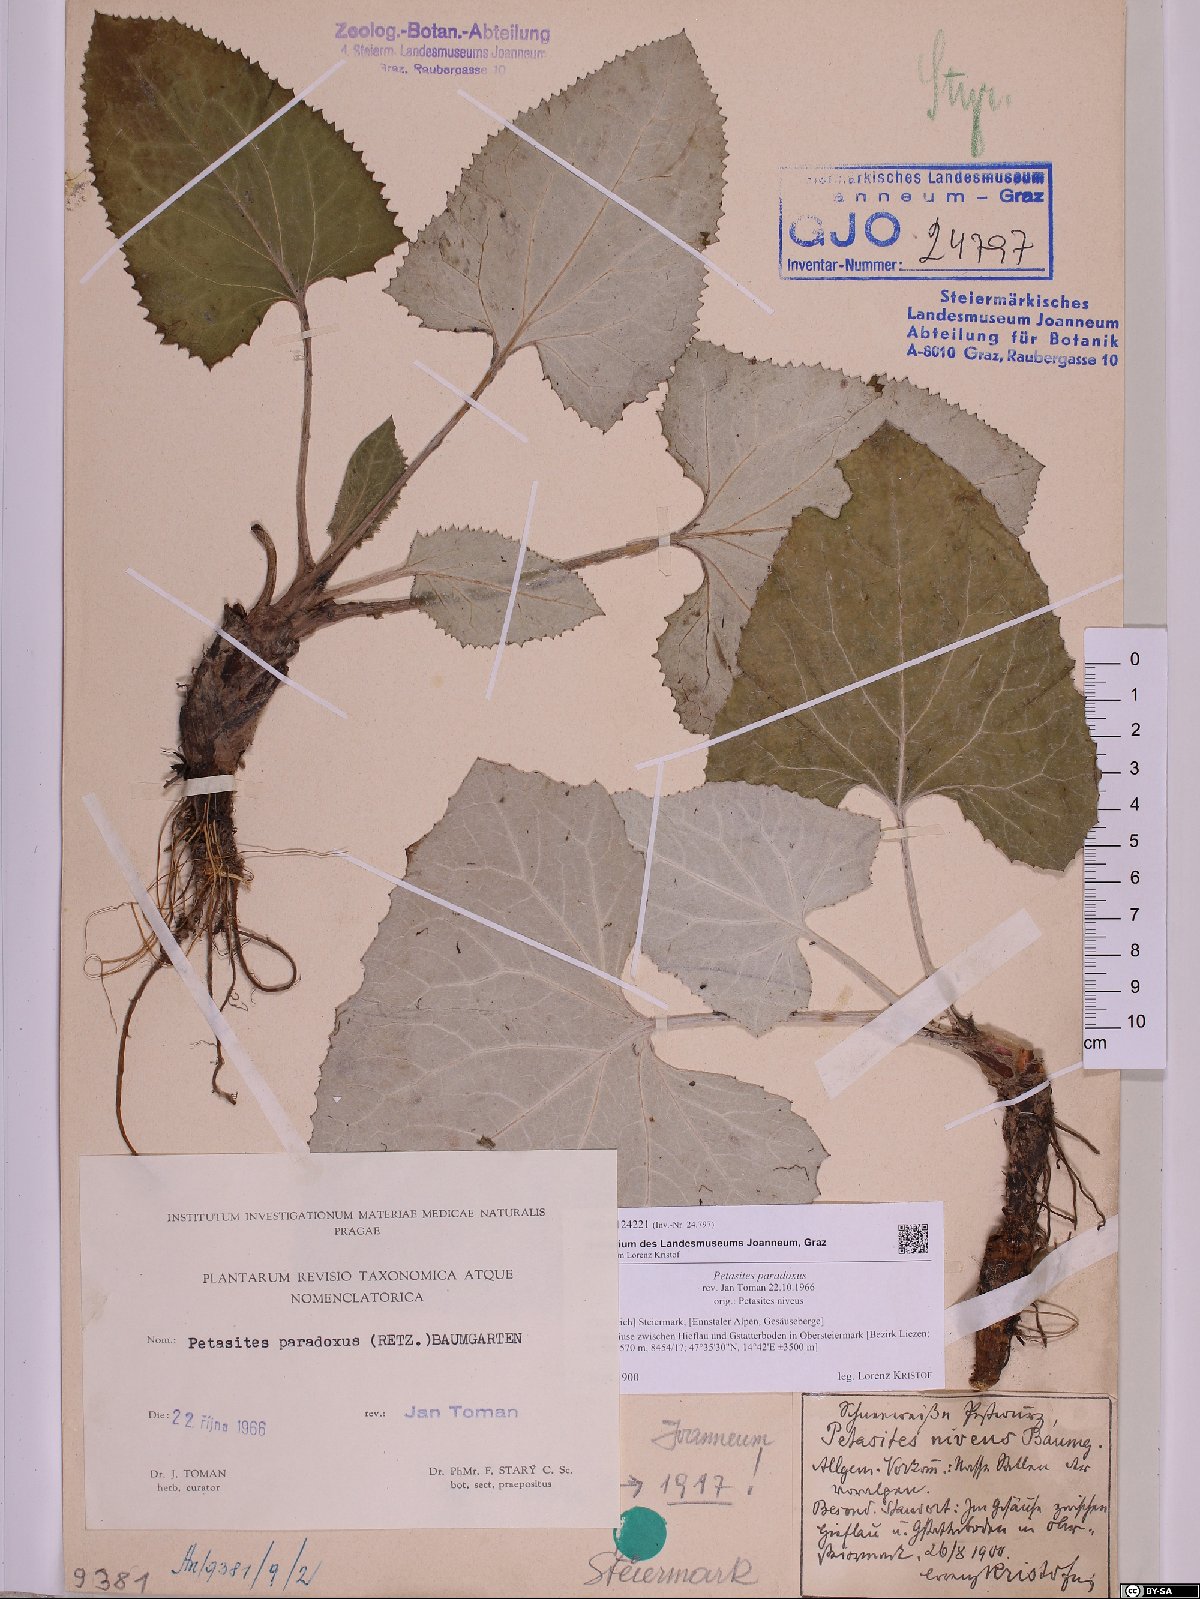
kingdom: Plantae
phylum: Tracheophyta
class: Magnoliopsida
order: Asterales
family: Asteraceae
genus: Petasites
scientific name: Petasites paradoxus
